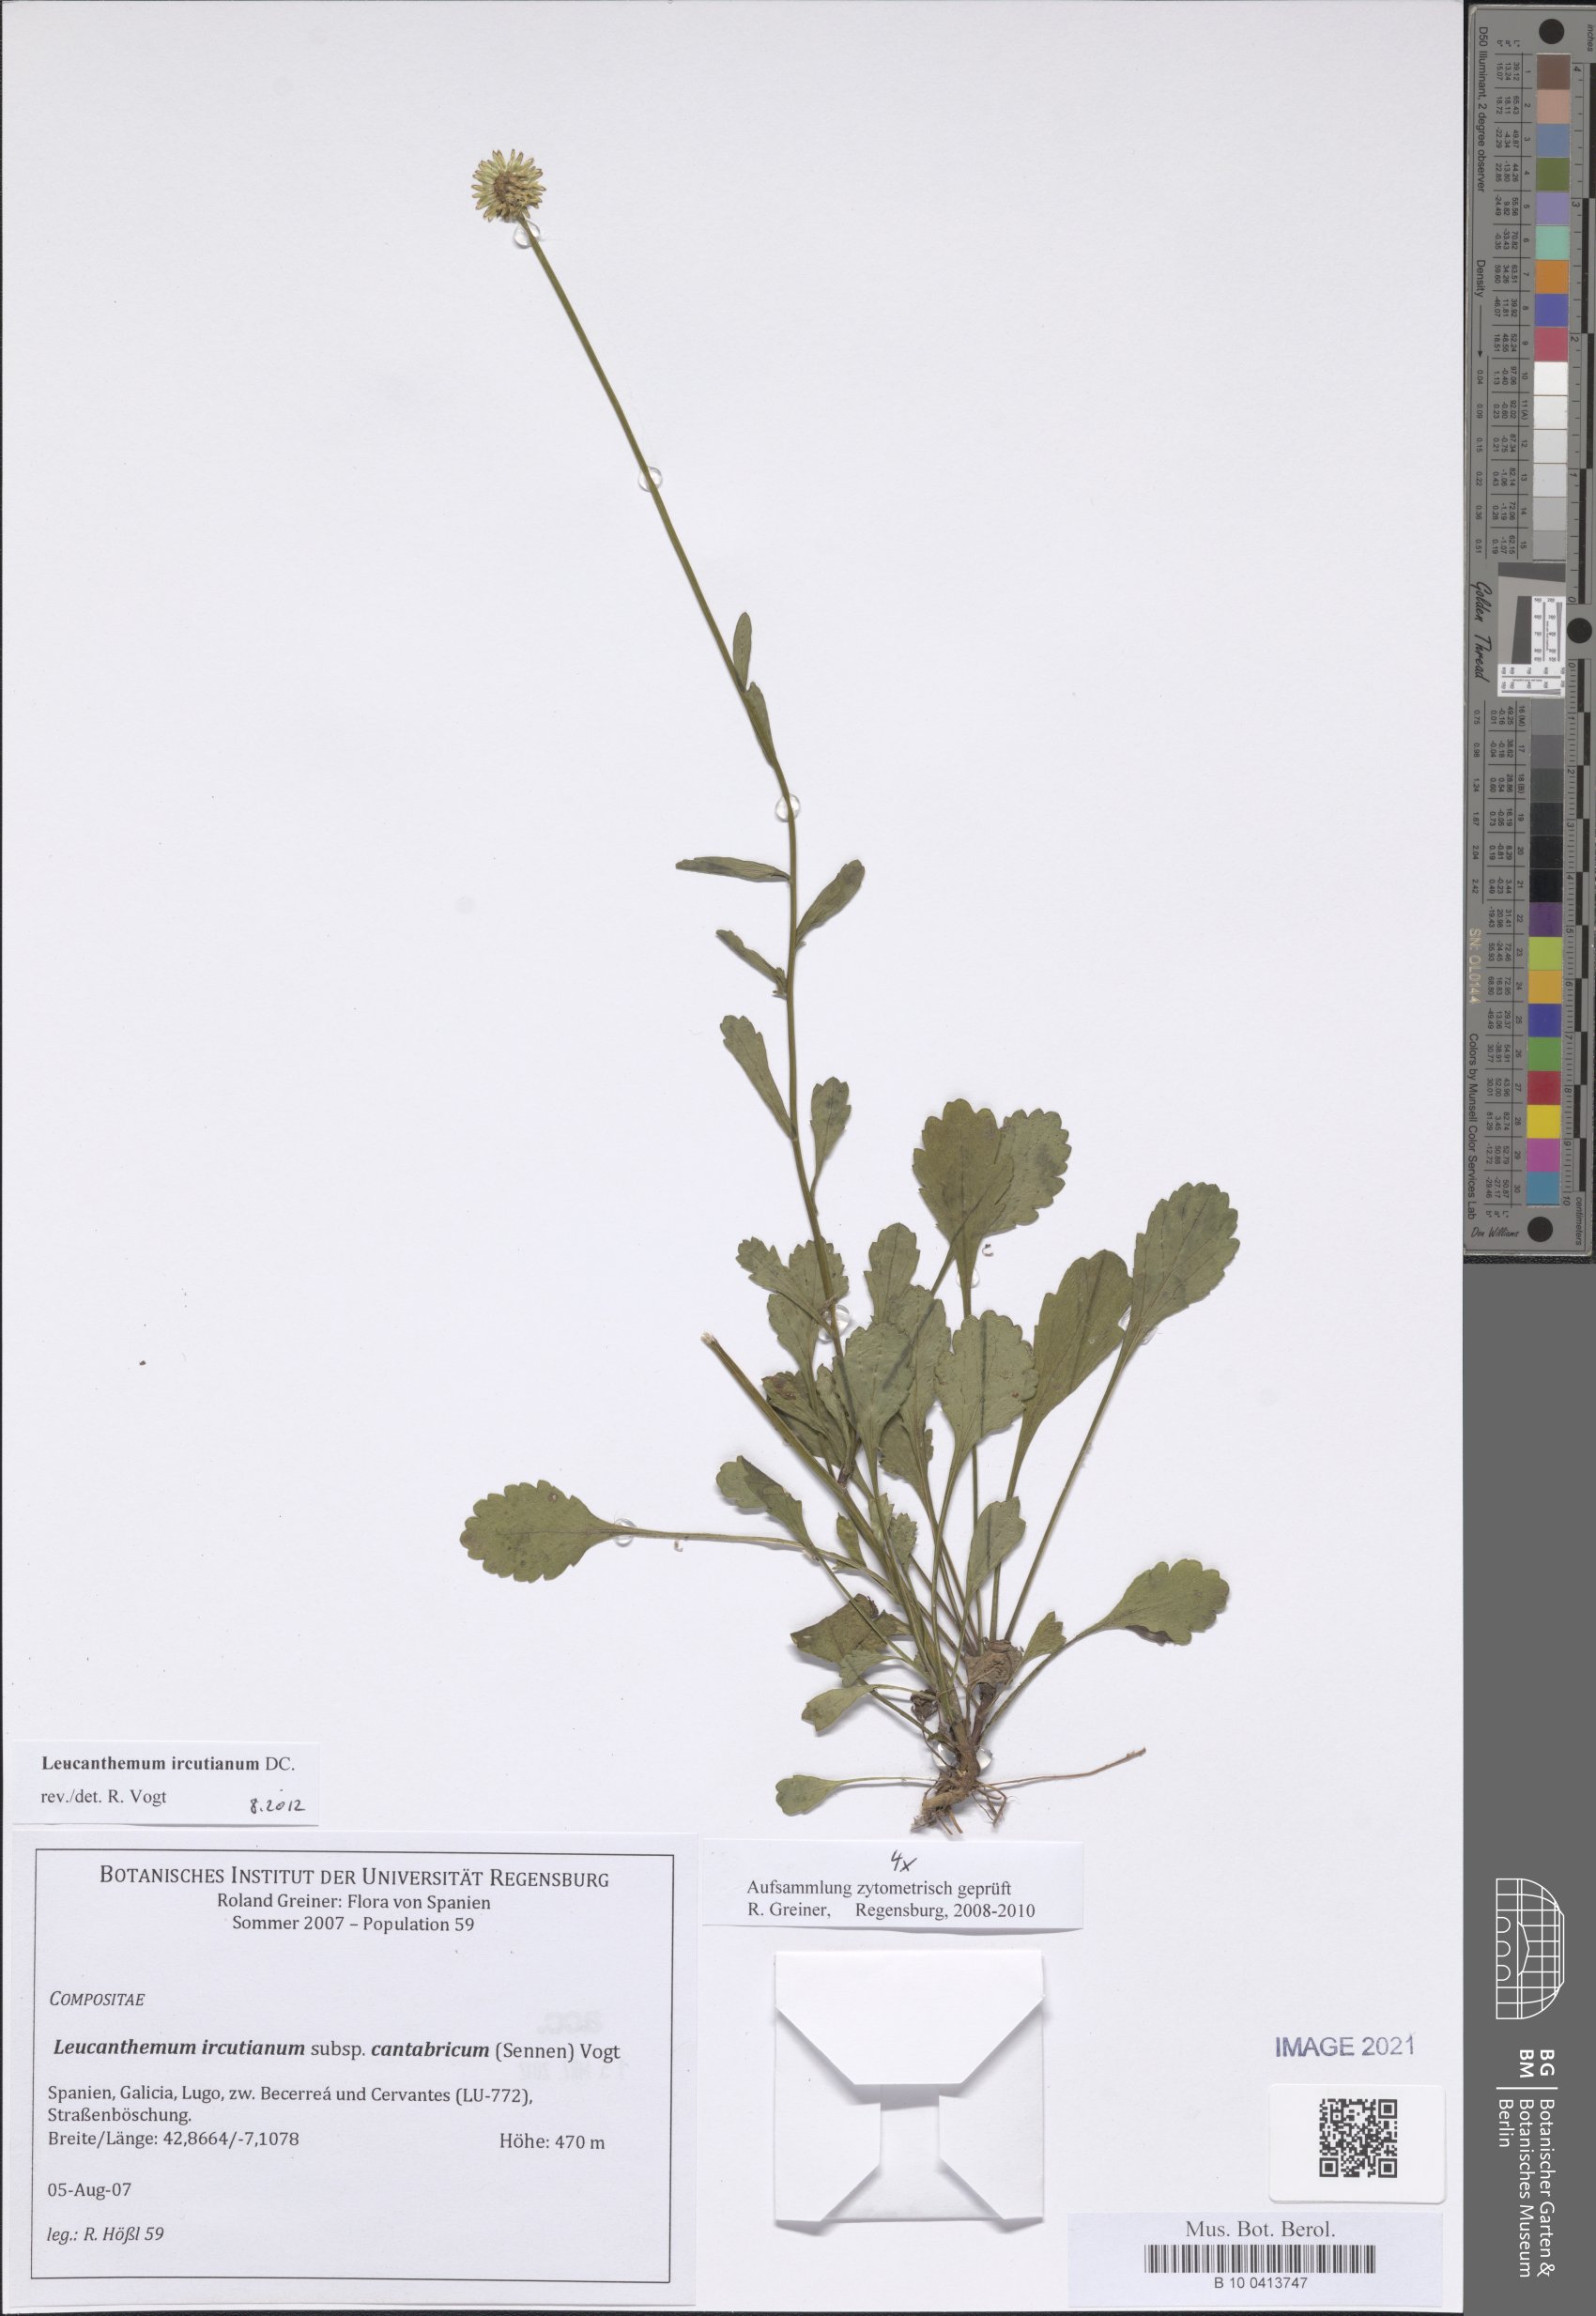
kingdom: Plantae
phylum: Tracheophyta
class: Magnoliopsida
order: Asterales
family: Asteraceae
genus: Leucanthemum
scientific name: Leucanthemum ircutianum
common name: Daisy
